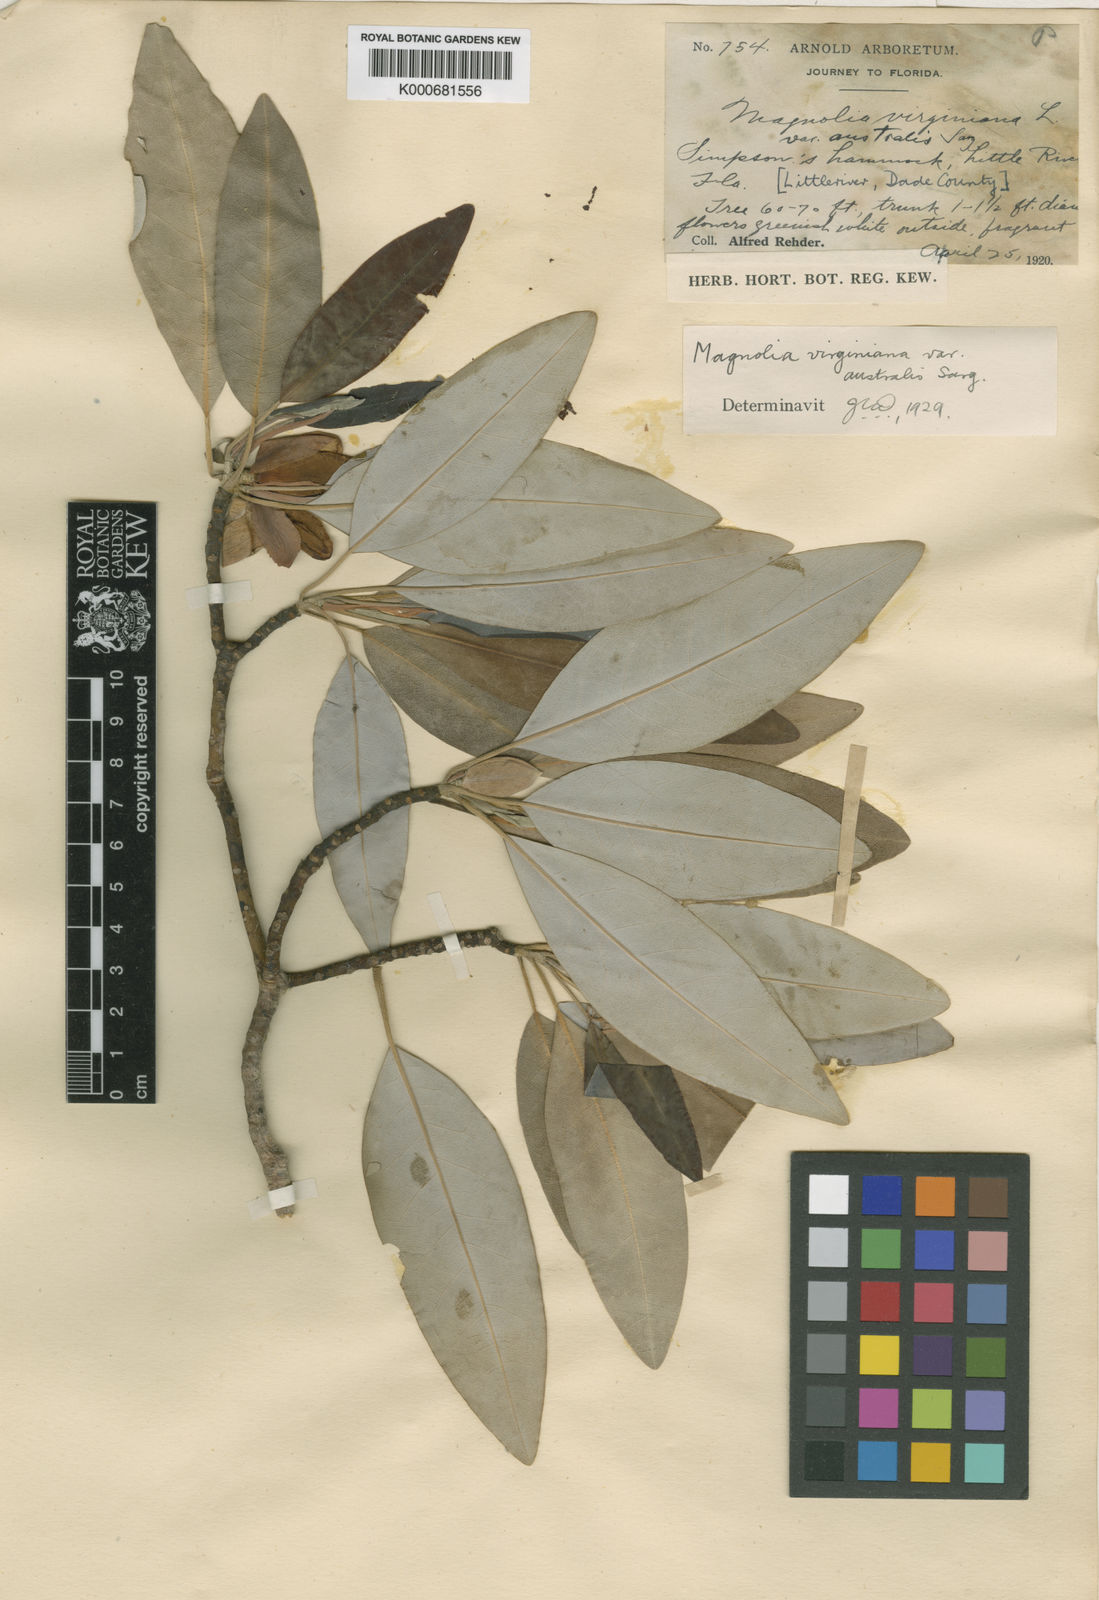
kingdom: Plantae
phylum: Tracheophyta
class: Magnoliopsida
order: Magnoliales
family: Magnoliaceae
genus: Magnolia
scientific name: Magnolia virginiana
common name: Swamp bay
